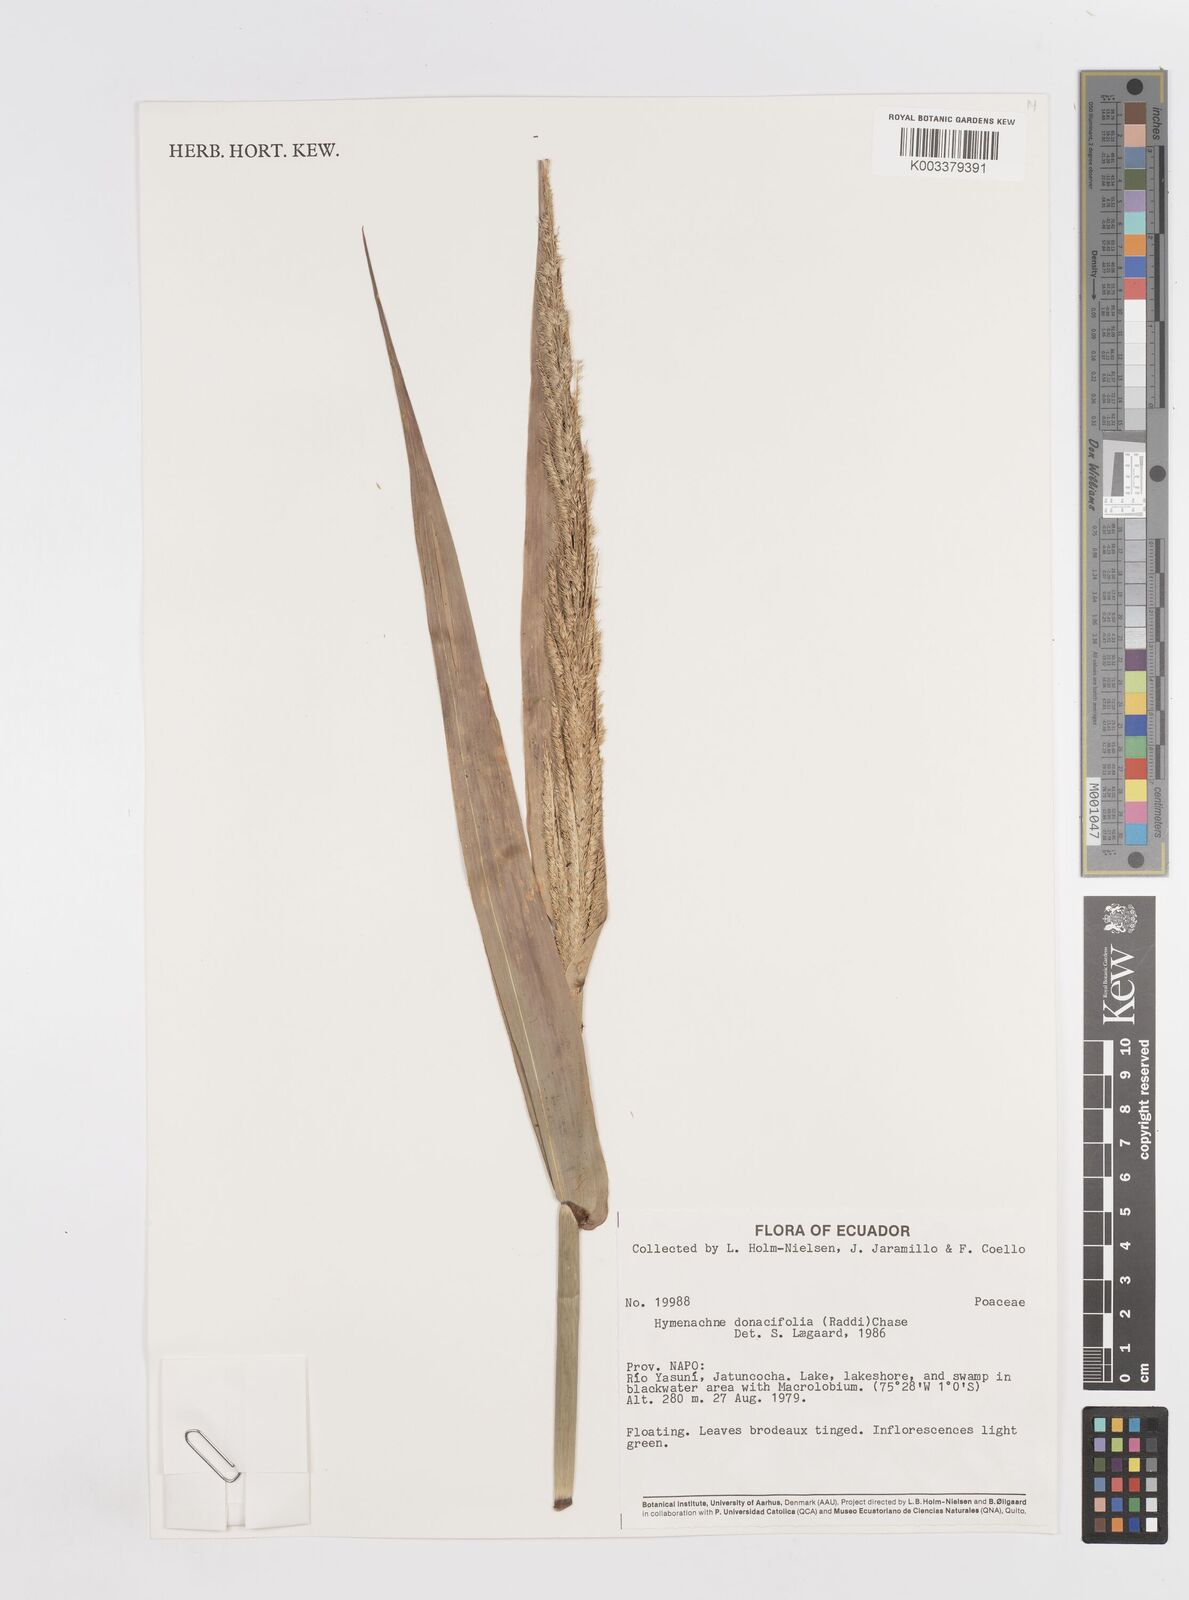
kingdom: Plantae
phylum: Tracheophyta
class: Liliopsida
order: Poales
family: Poaceae
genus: Hymenachne
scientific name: Hymenachne donacifolia
